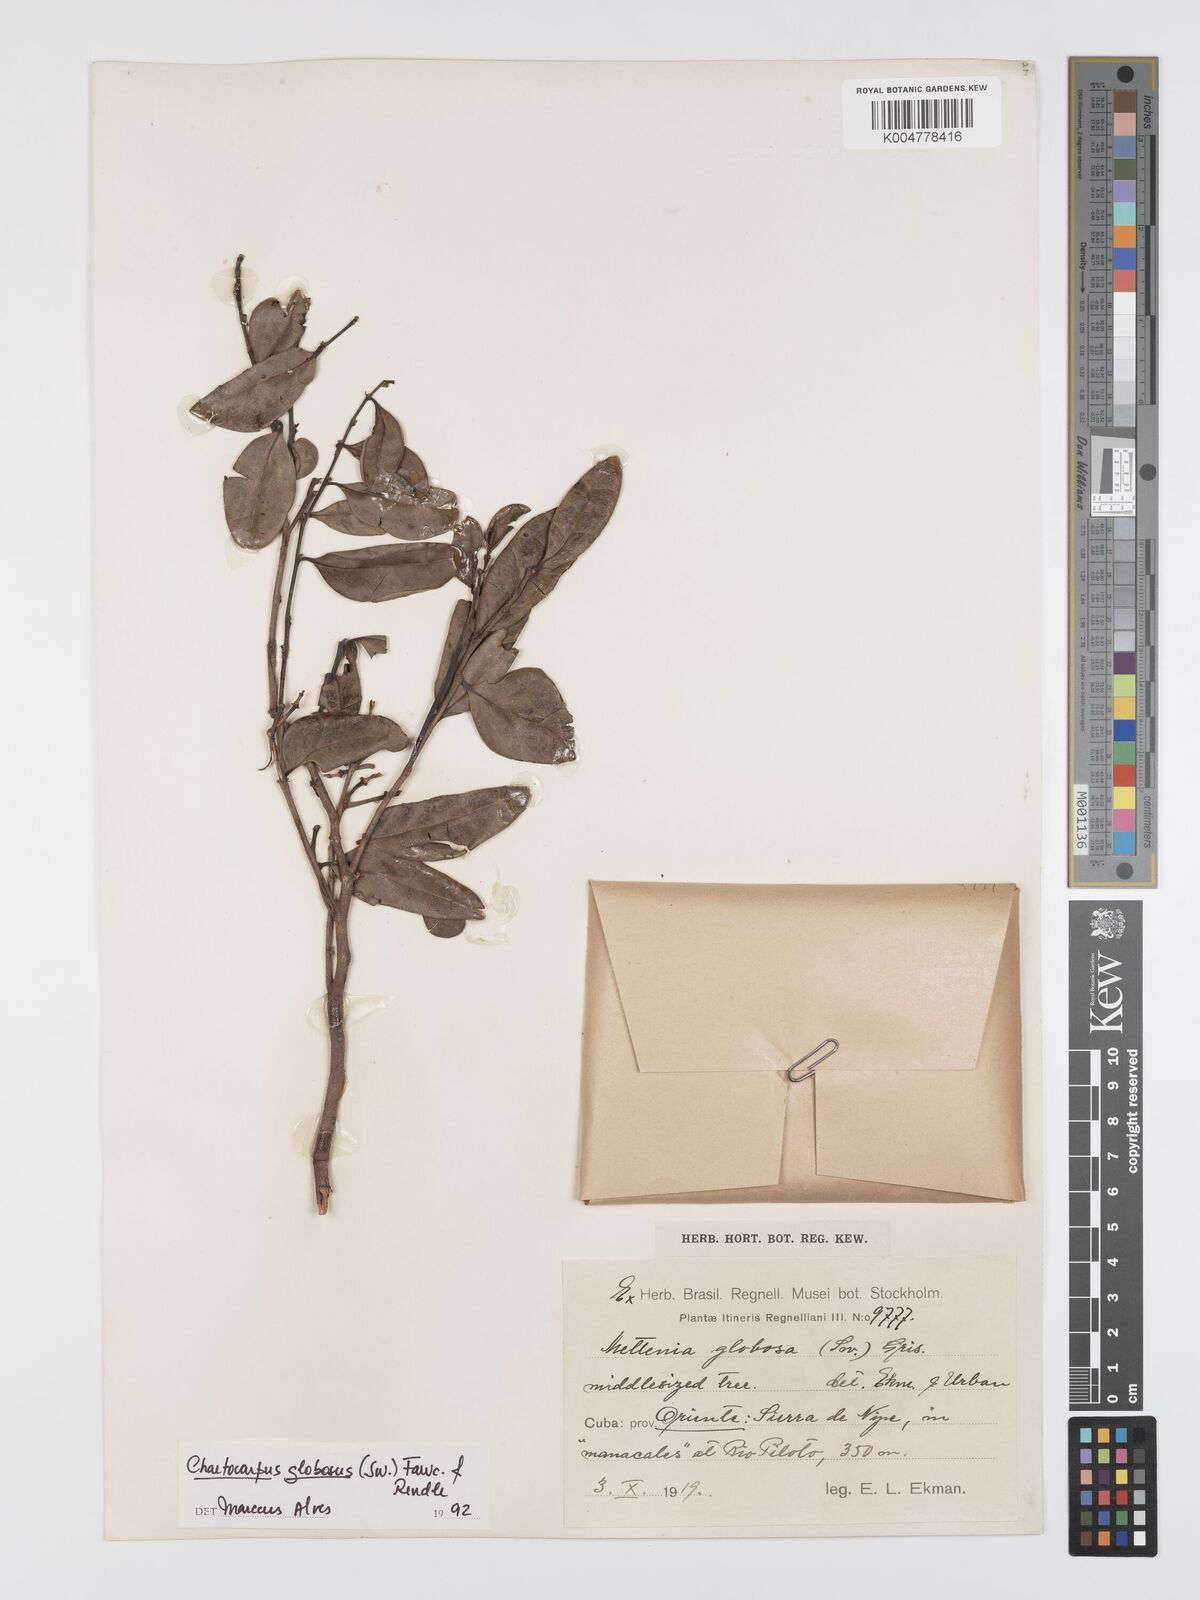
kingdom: Plantae
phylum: Tracheophyta
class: Magnoliopsida
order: Malpighiales
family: Peraceae
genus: Chaetocarpus
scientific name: Chaetocarpus globosus
